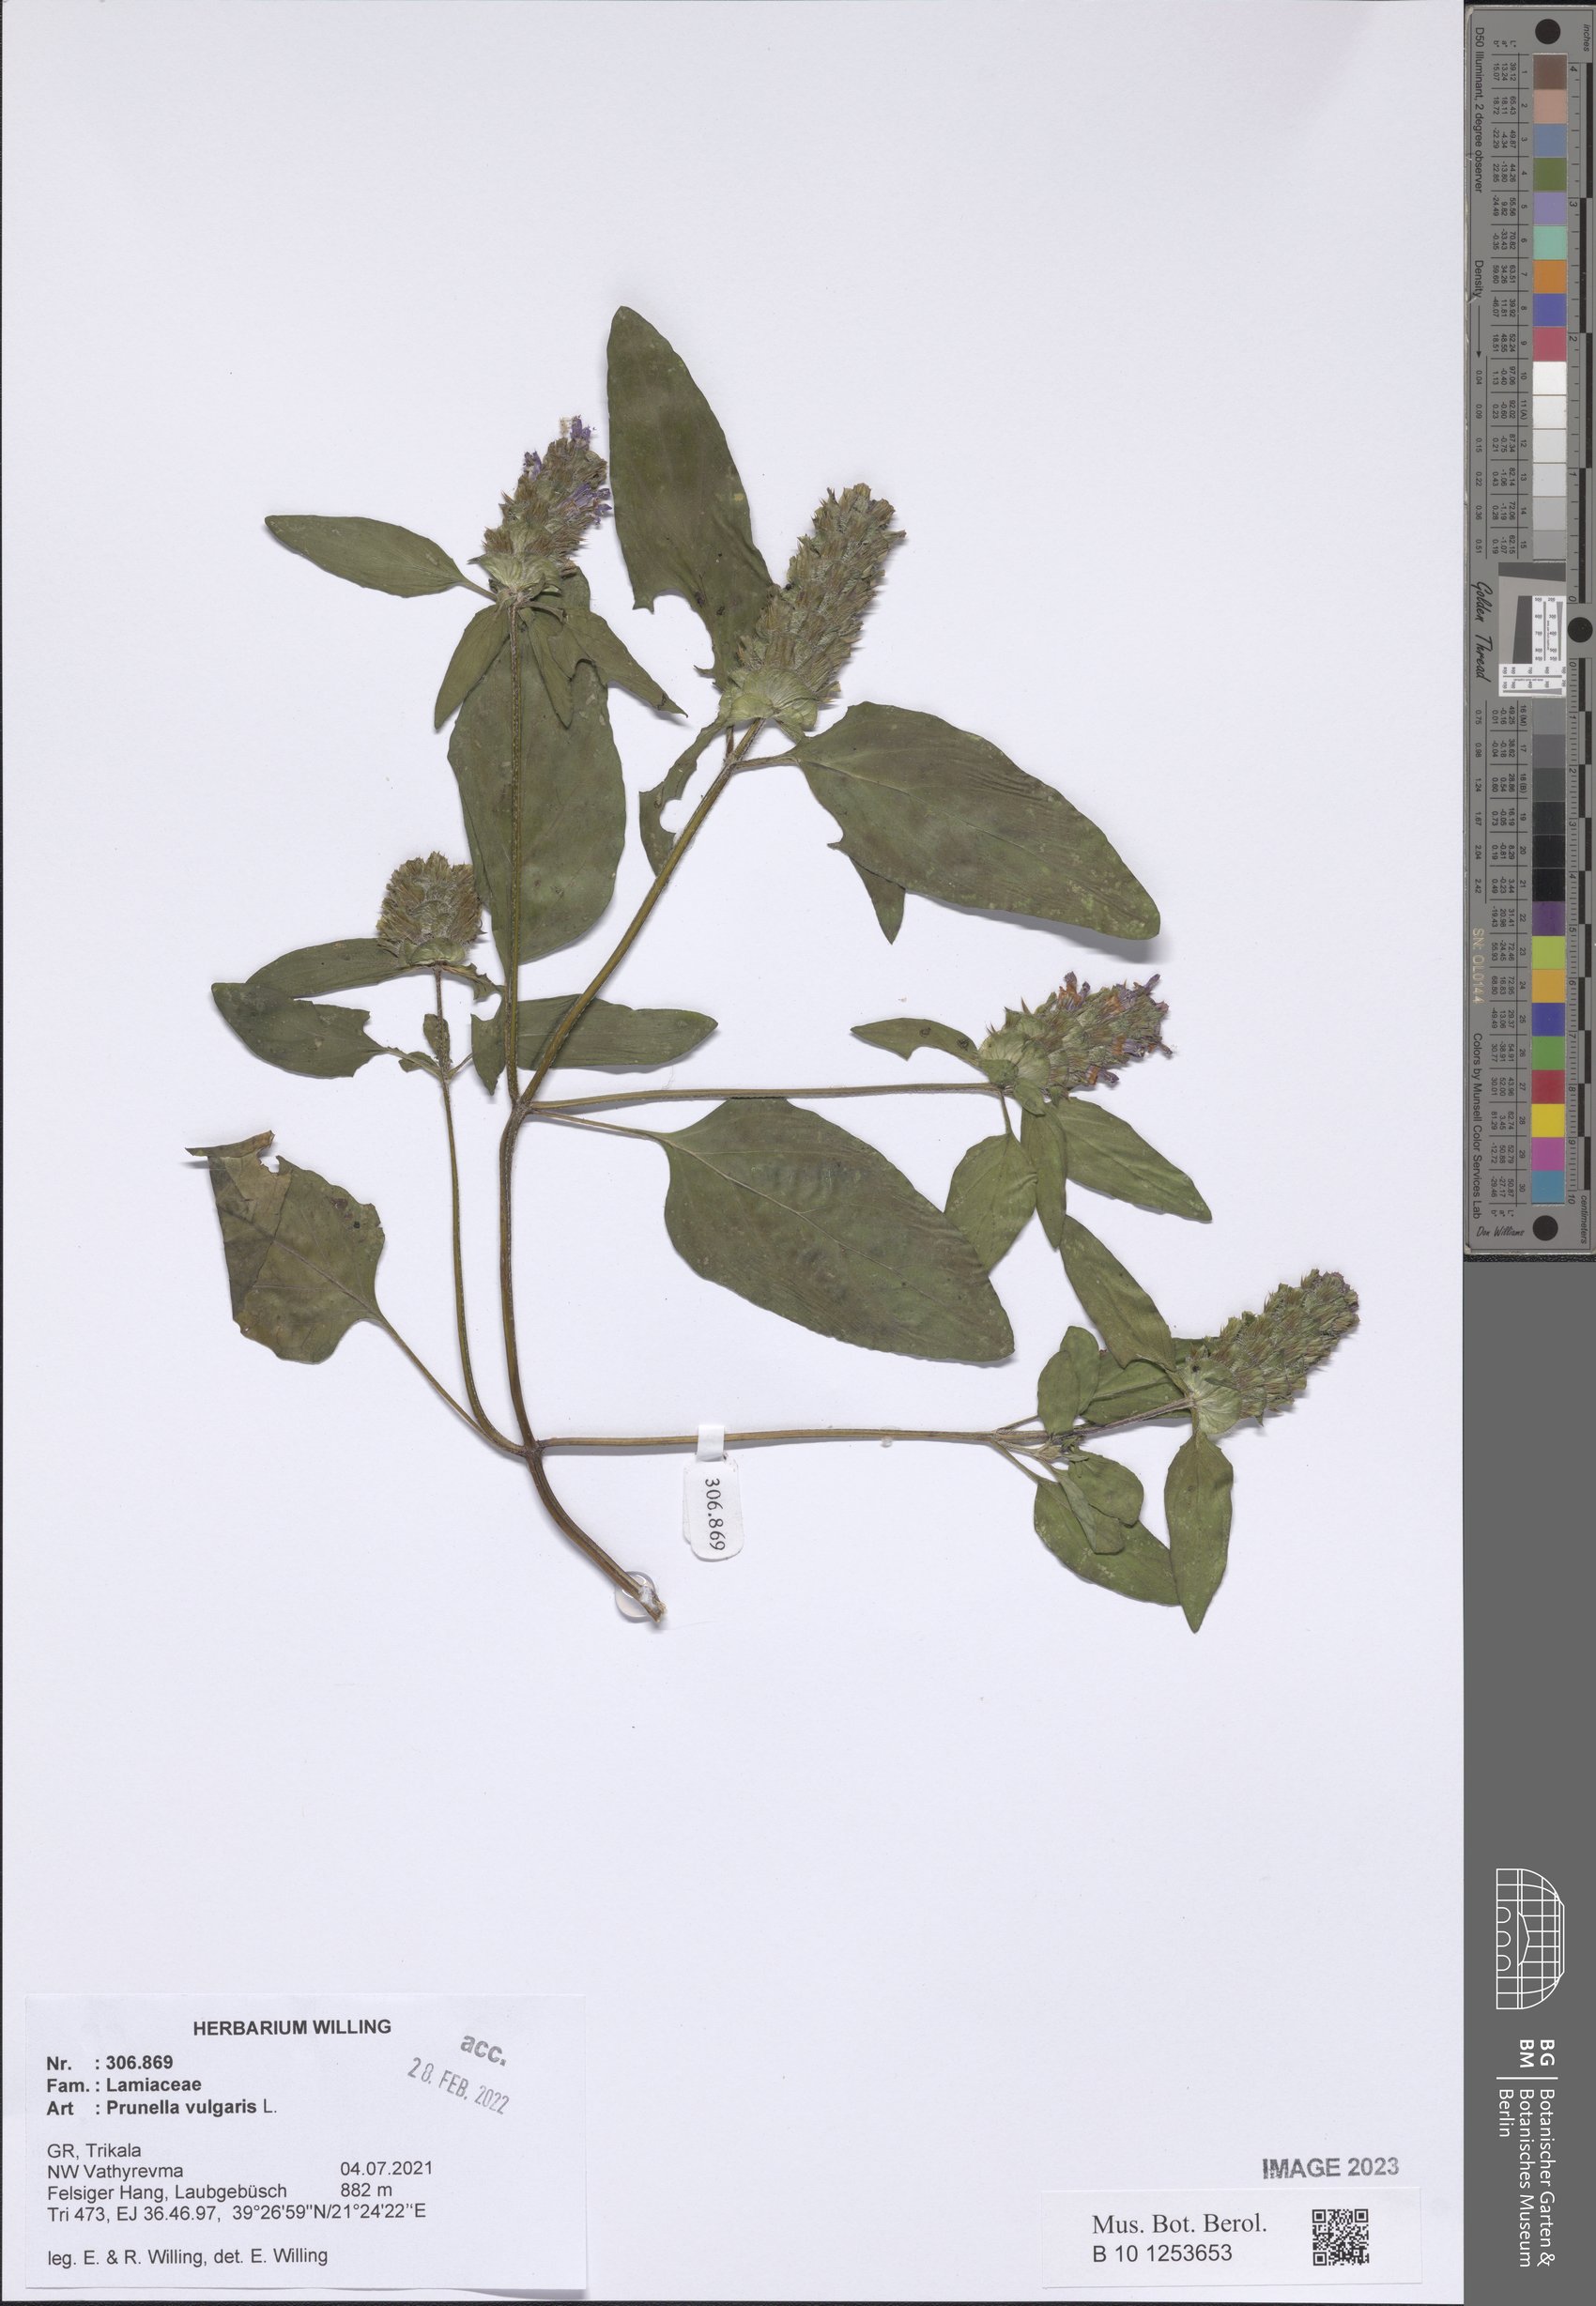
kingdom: Plantae
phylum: Tracheophyta
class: Magnoliopsida
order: Lamiales
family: Lamiaceae
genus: Prunella
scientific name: Prunella vulgaris
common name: Heal-all
